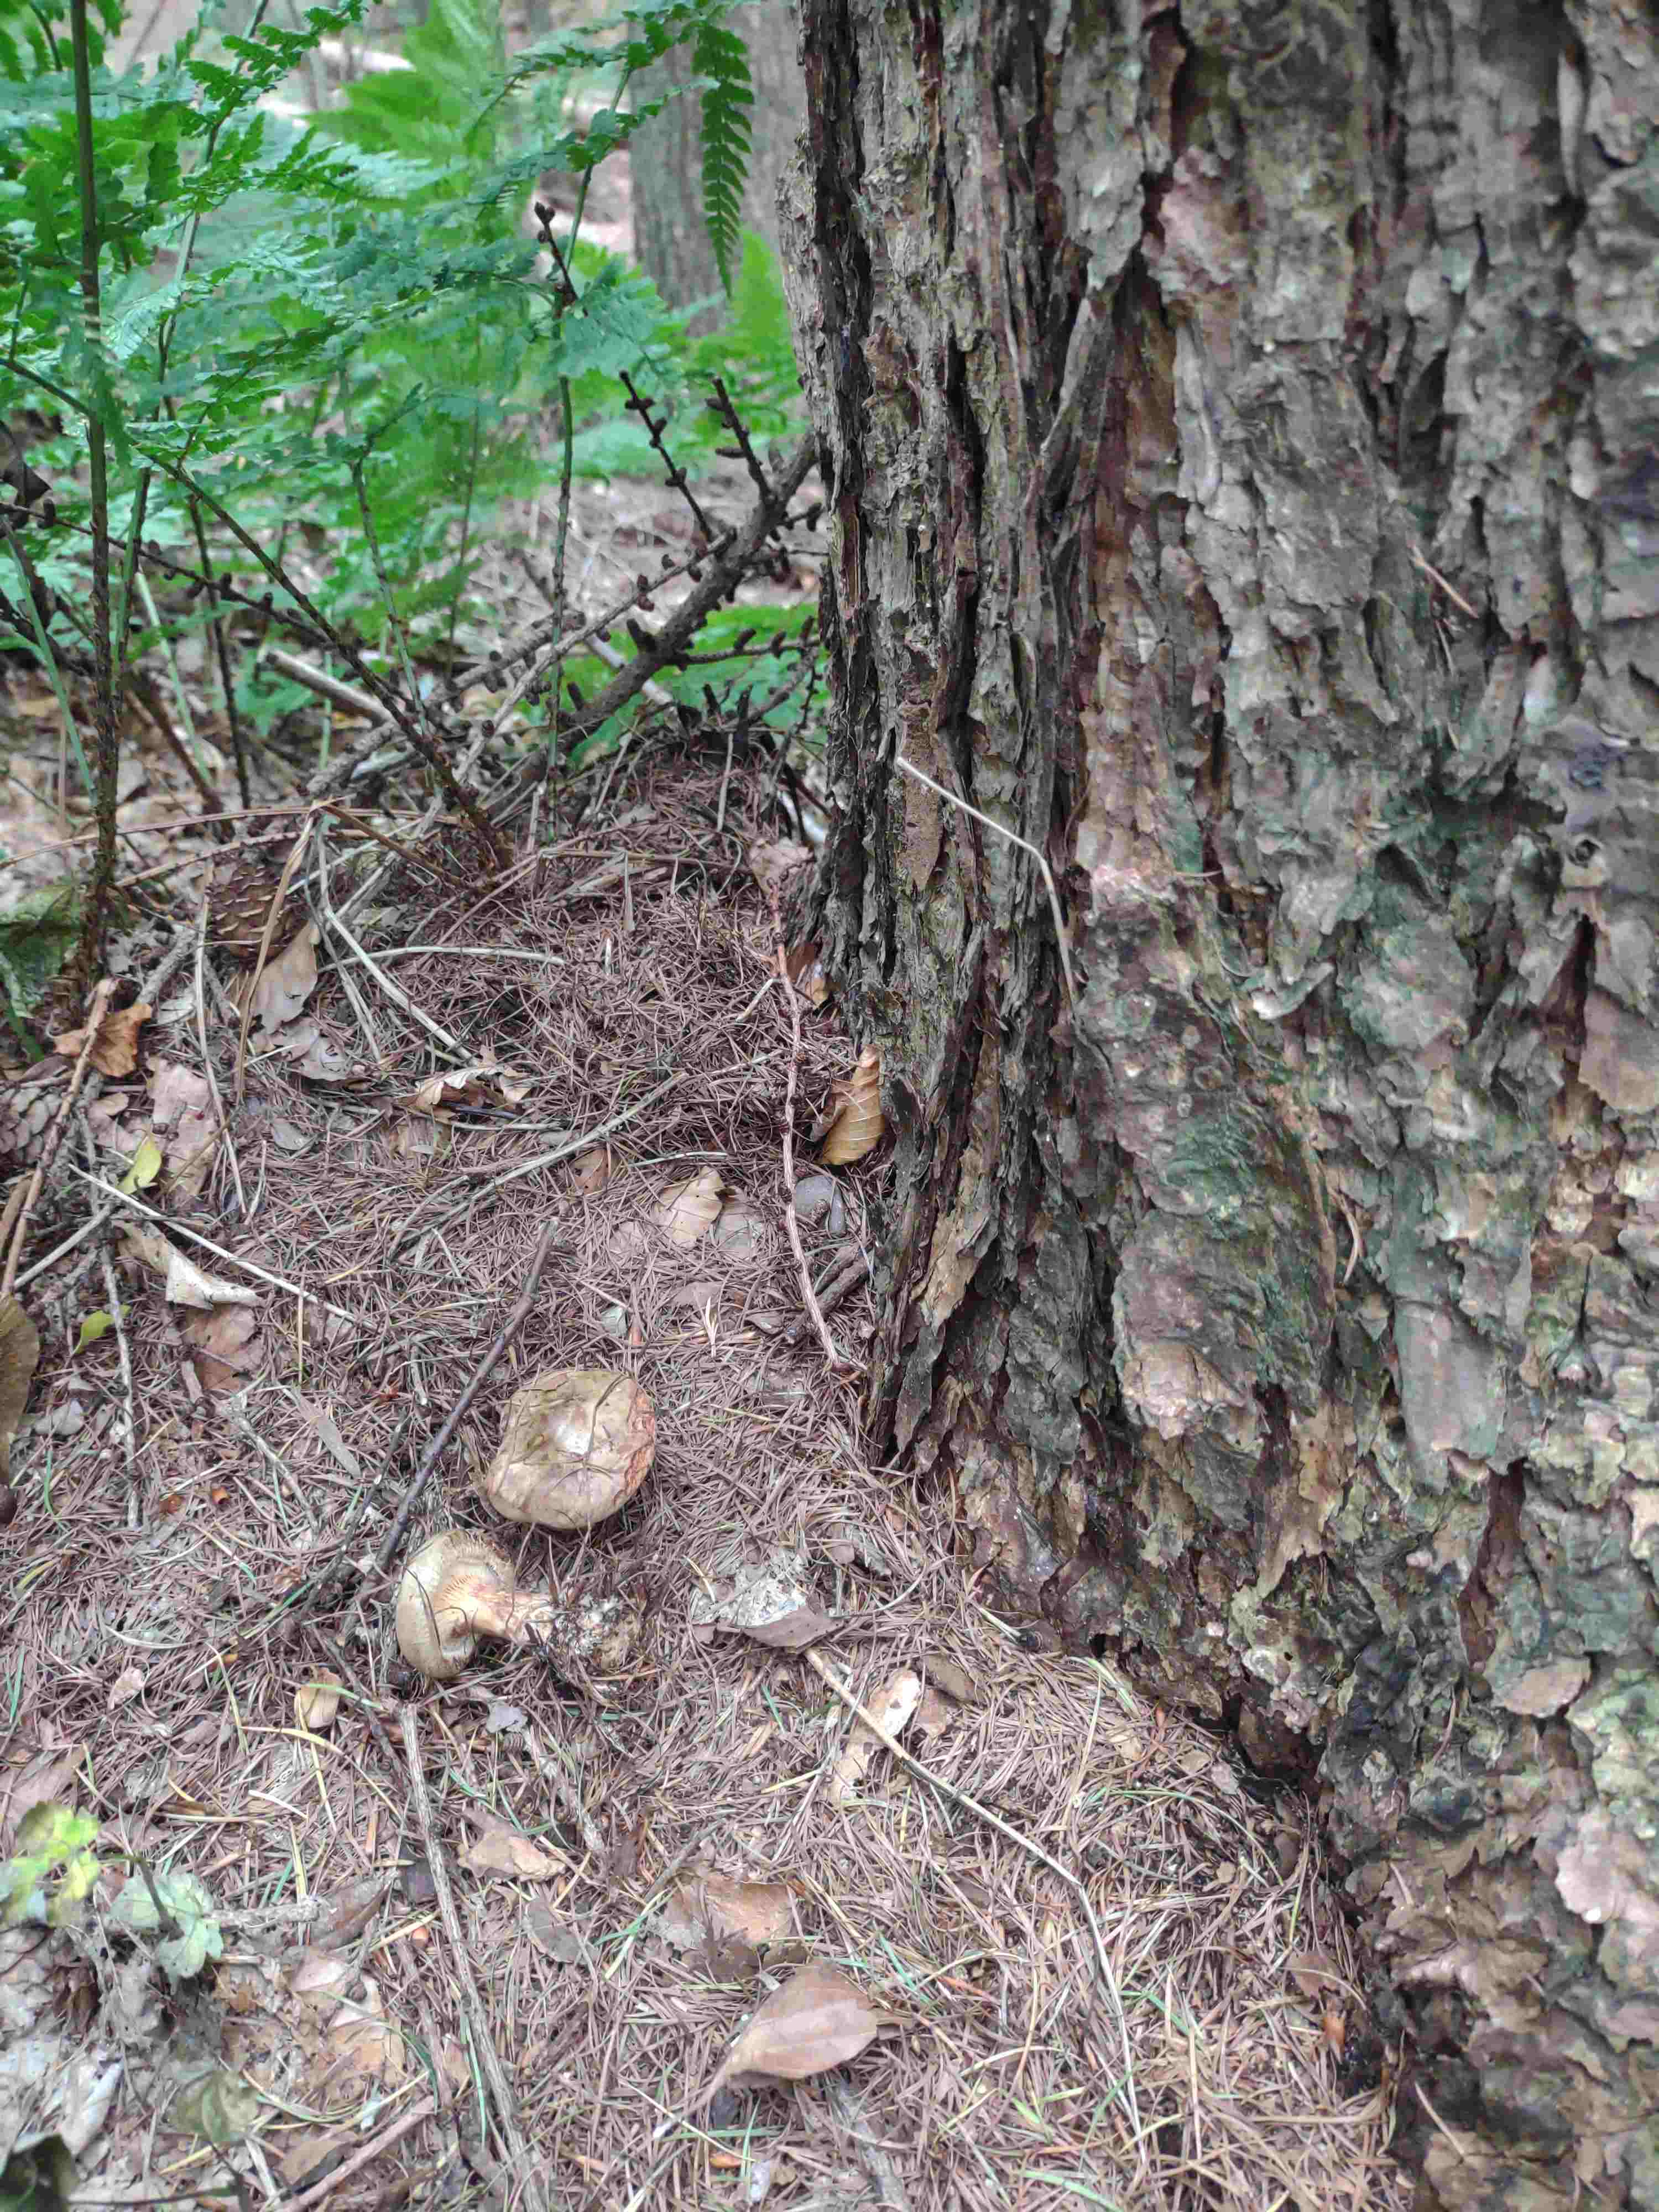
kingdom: Fungi
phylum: Basidiomycota
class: Agaricomycetes
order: Boletales
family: Paxillaceae
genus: Paxillus
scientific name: Paxillus involutus
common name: almindelig netbladhat
